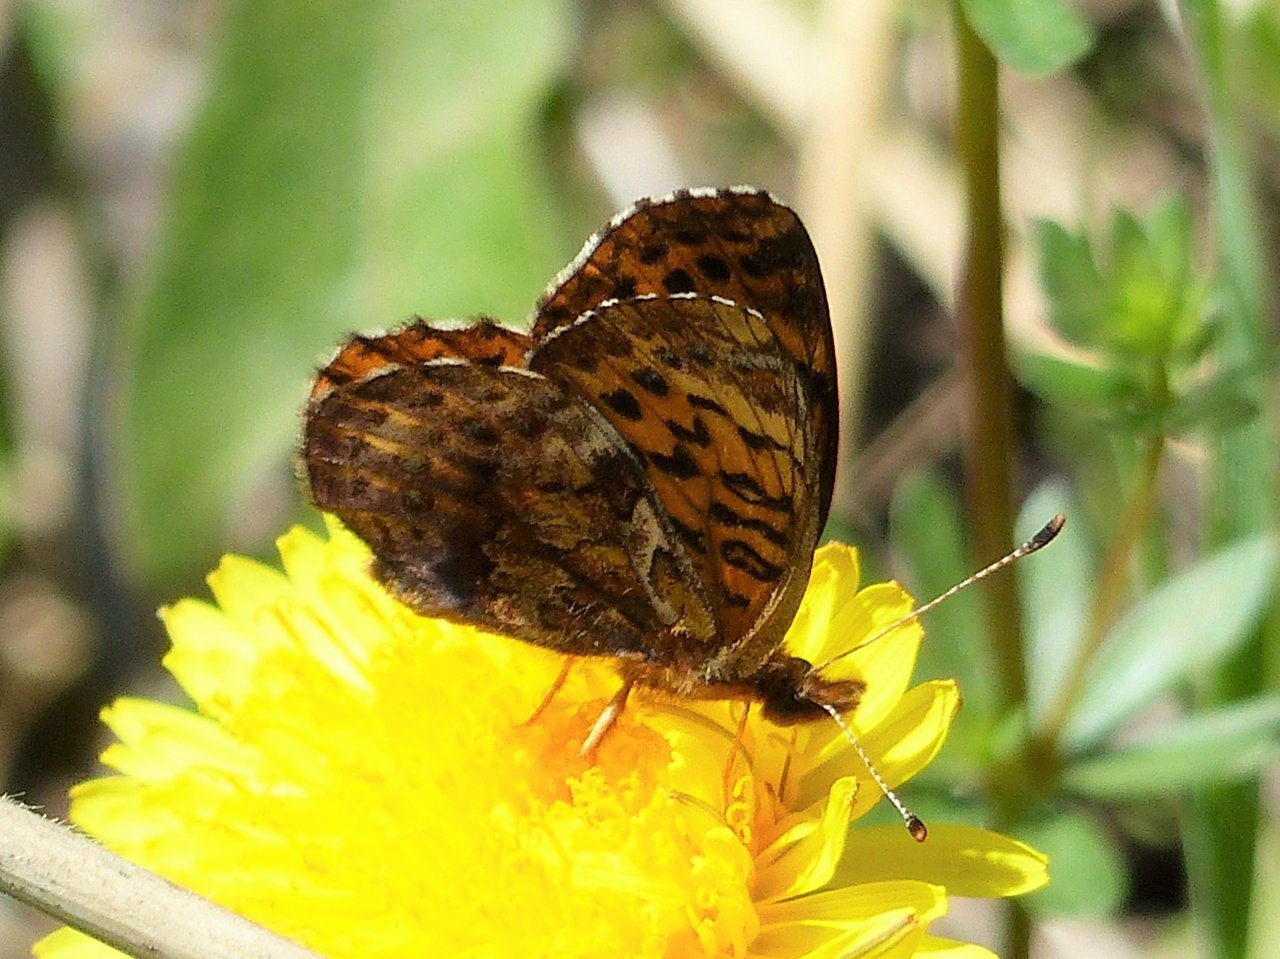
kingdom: Animalia
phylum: Arthropoda
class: Insecta
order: Lepidoptera
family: Nymphalidae
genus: Clossiana
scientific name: Clossiana toddi
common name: Meadow Fritillary
